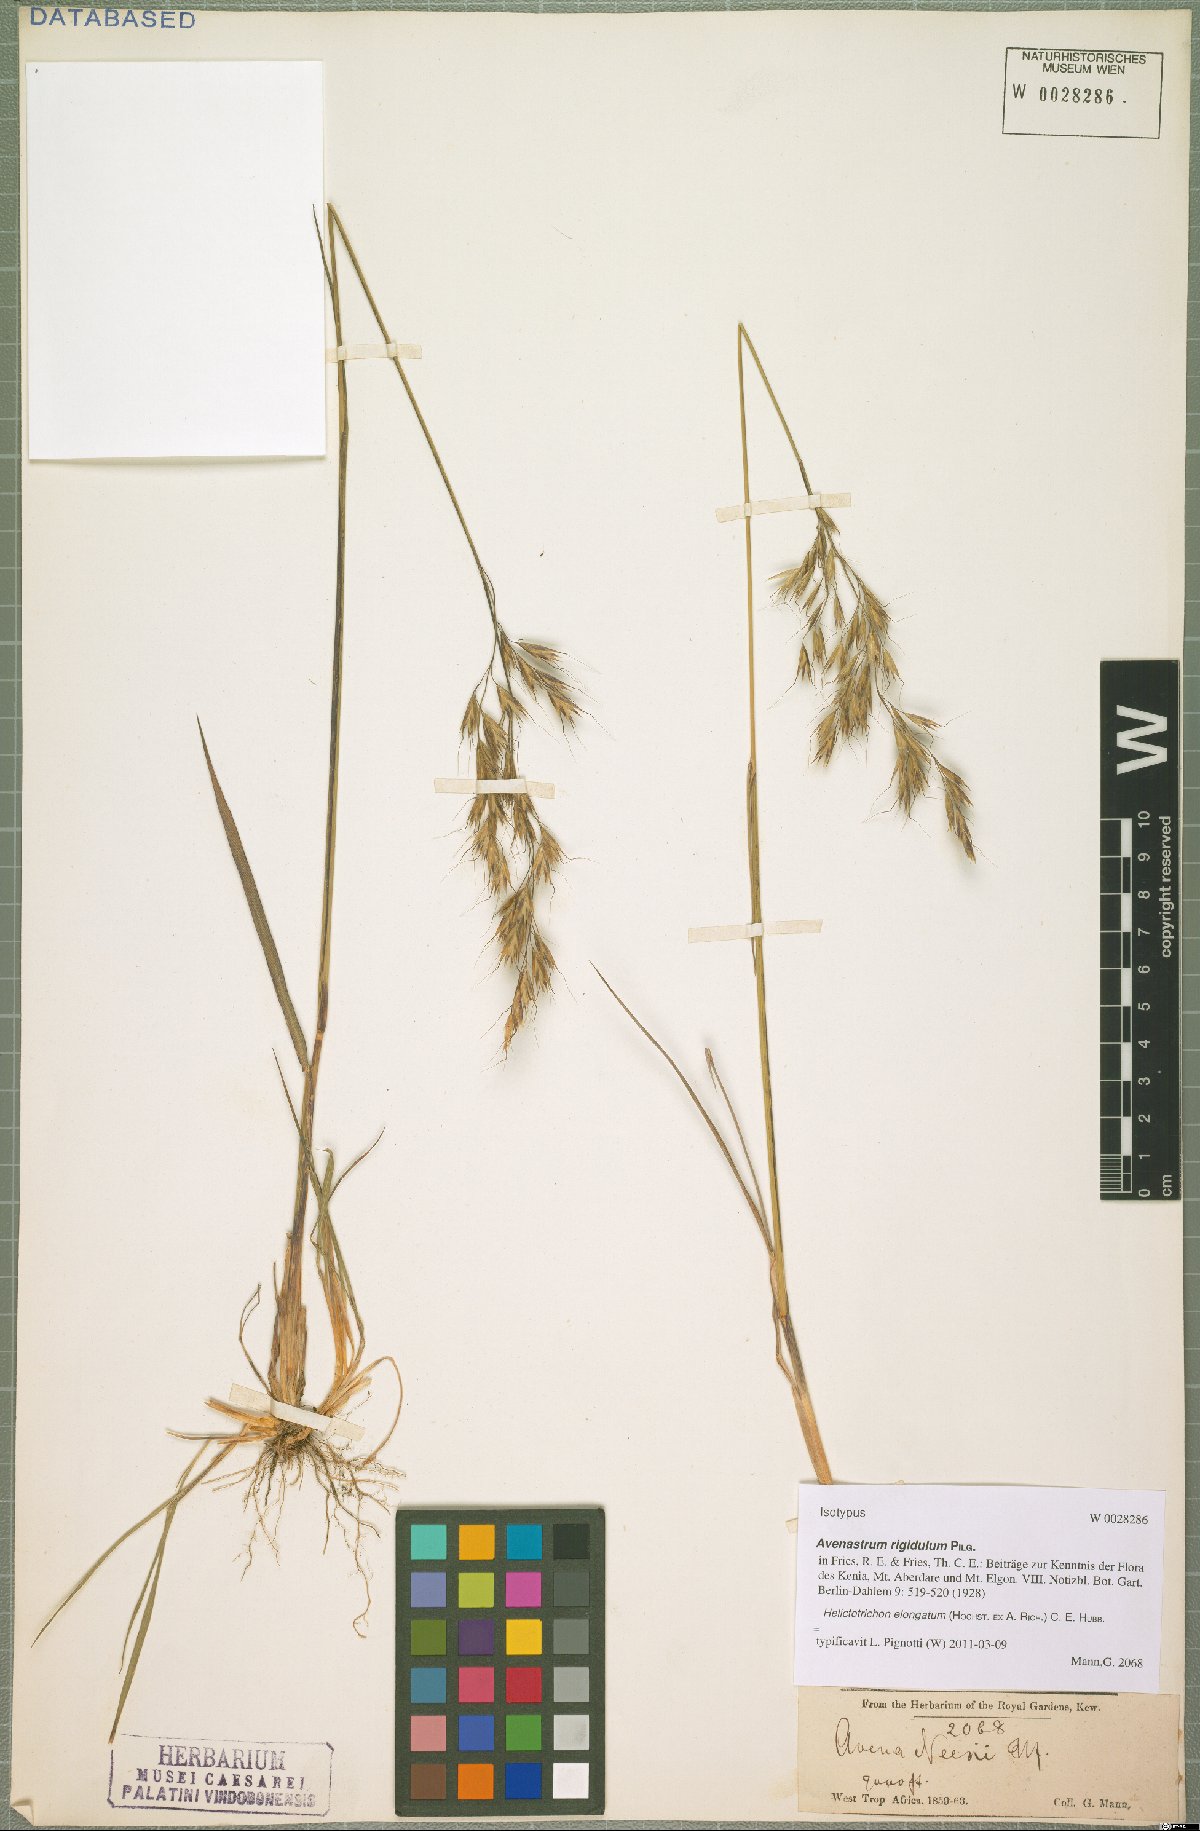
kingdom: Plantae
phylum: Tracheophyta
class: Liliopsida
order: Poales
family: Poaceae
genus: Trisetopsis
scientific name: Trisetopsis elongata
